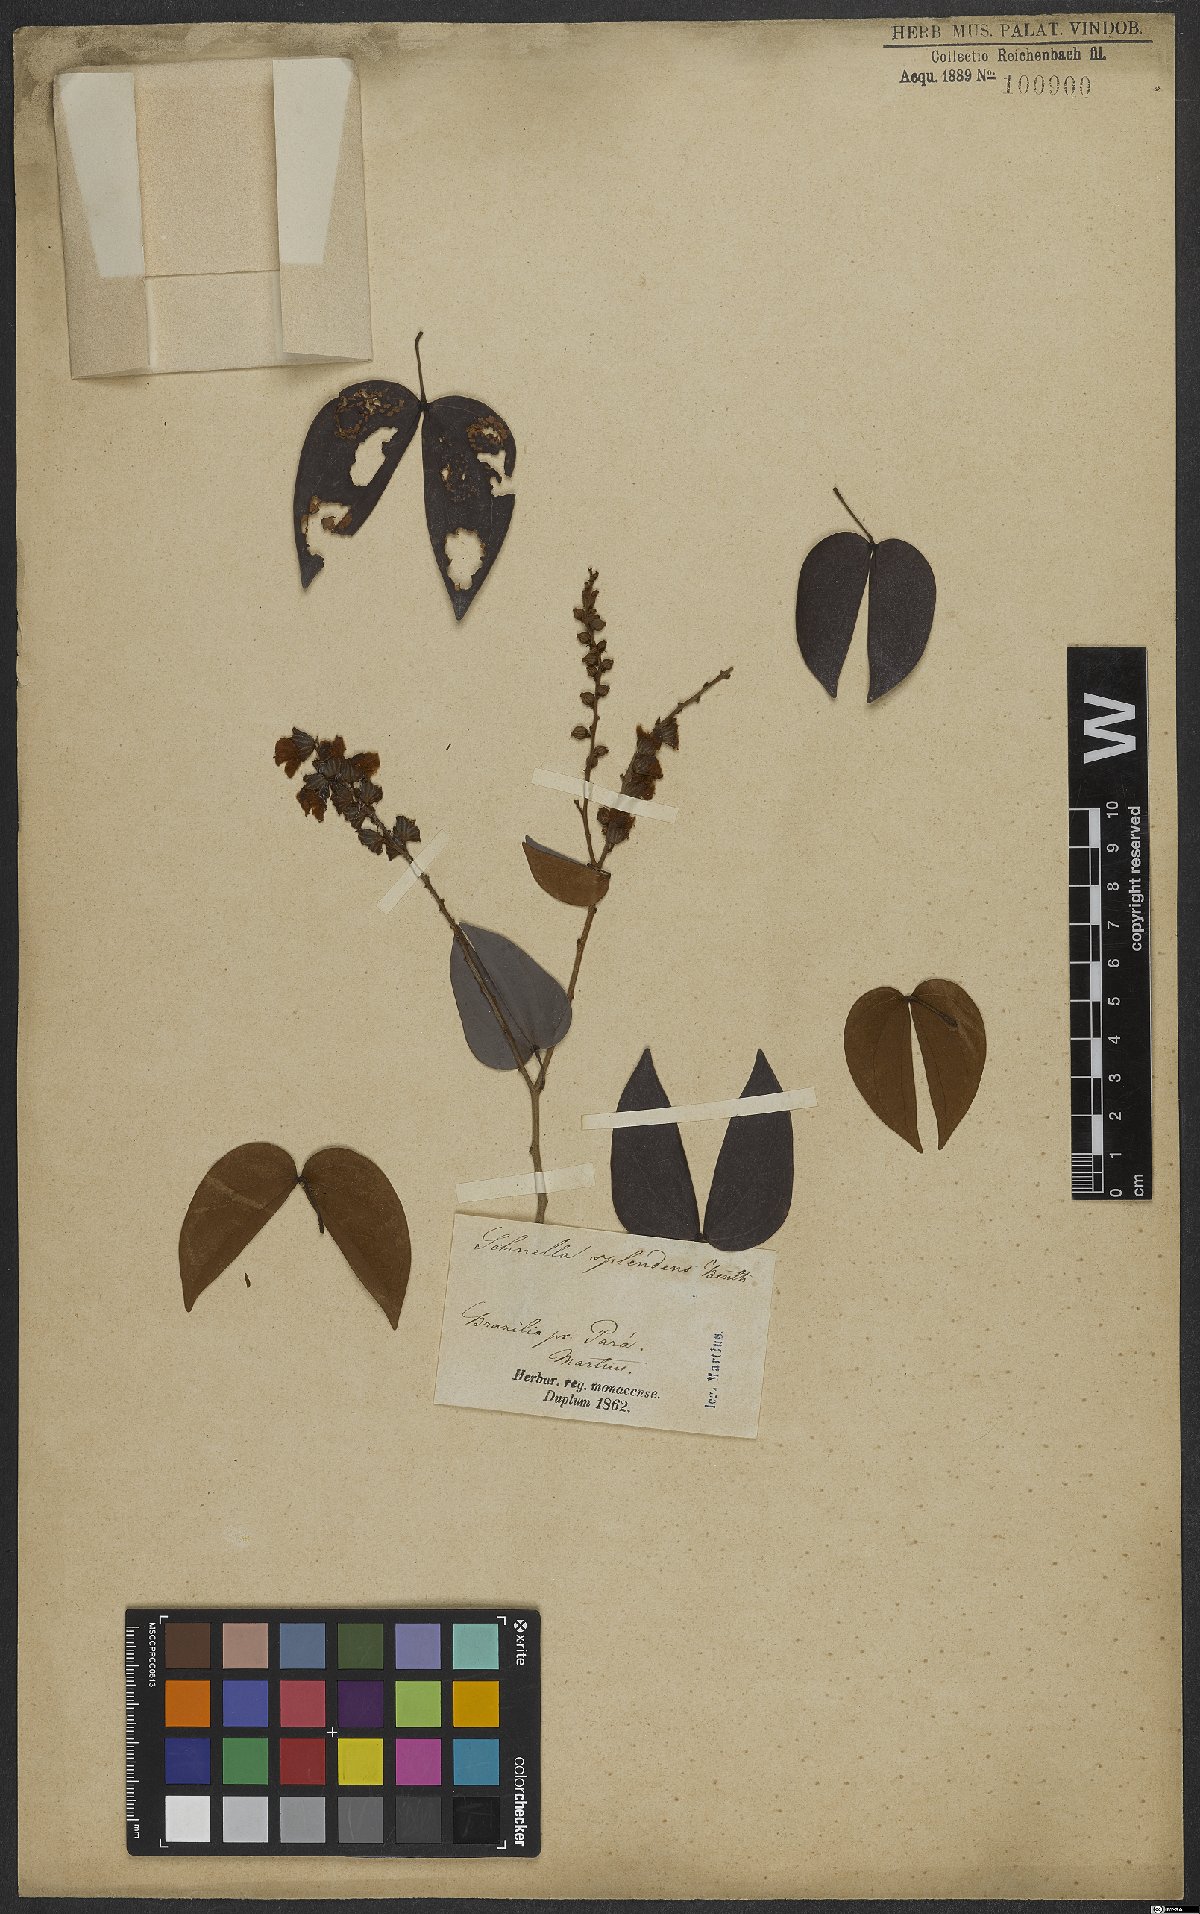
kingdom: Plantae
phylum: Tracheophyta
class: Magnoliopsida
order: Fabales
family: Fabaceae
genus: Schnella
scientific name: Schnella splendens
